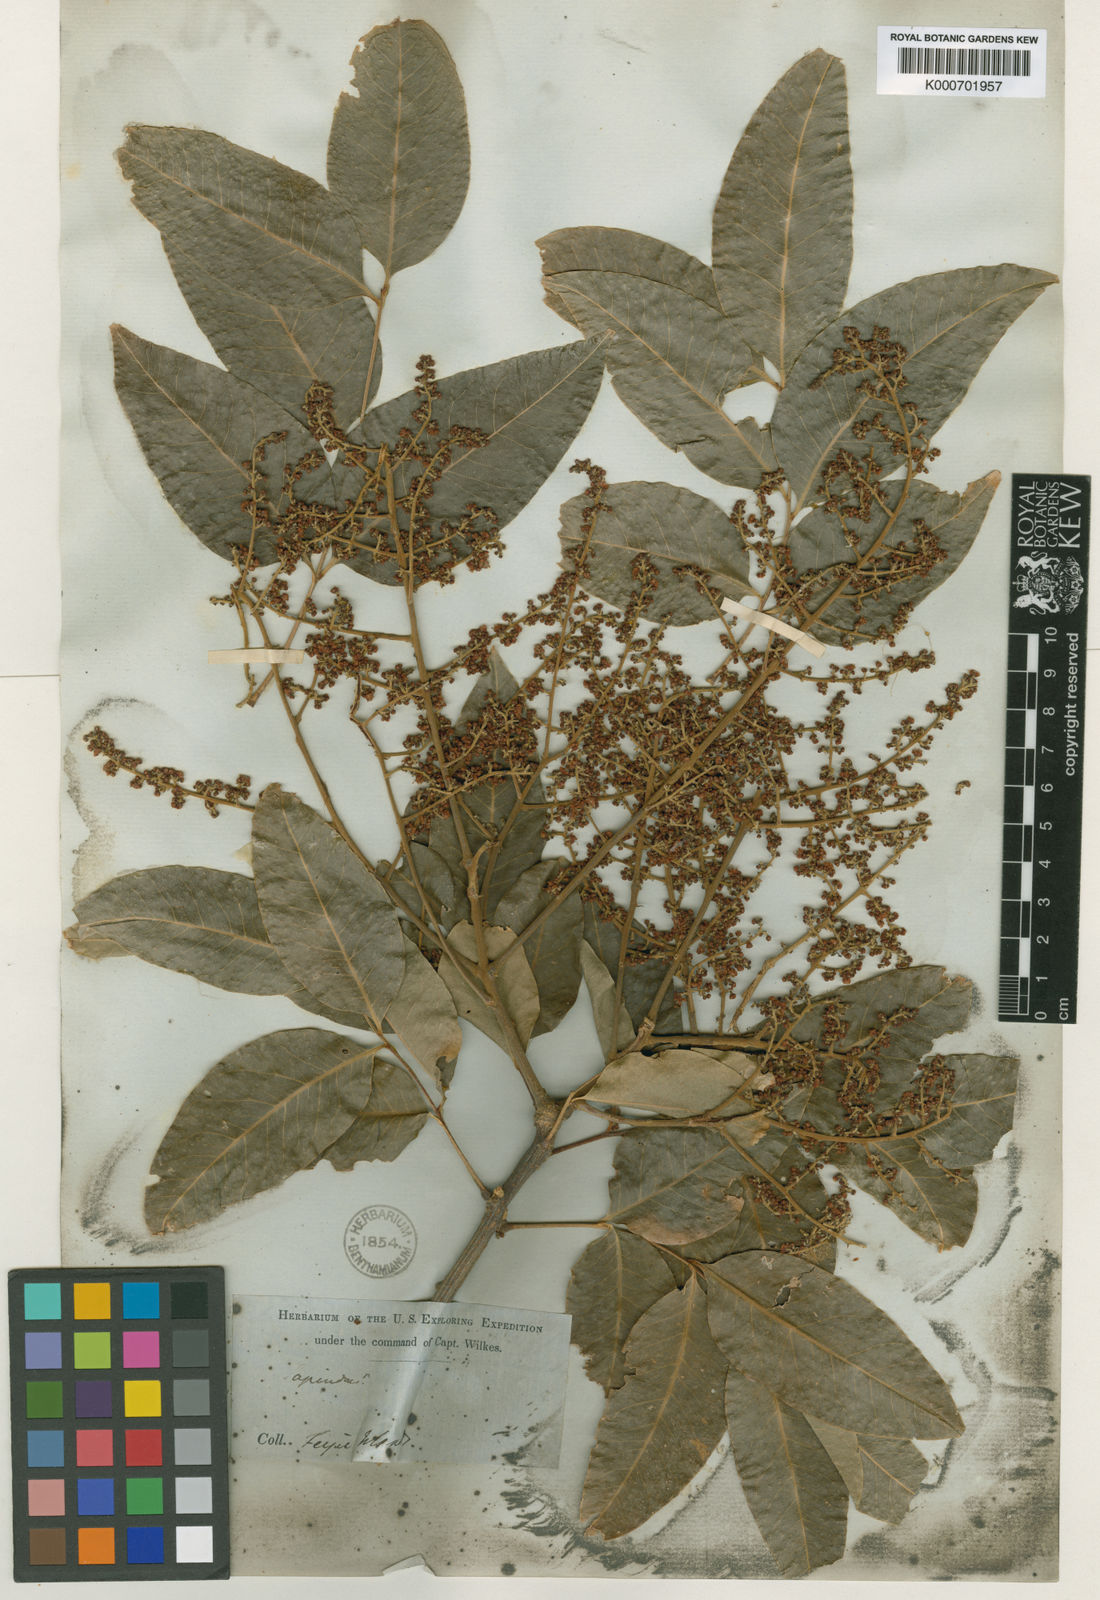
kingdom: Plantae
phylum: Tracheophyta
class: Magnoliopsida
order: Sapindales
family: Sapindaceae
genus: Sapindus
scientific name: Sapindus saponaria
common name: Wingleaf soapberry
